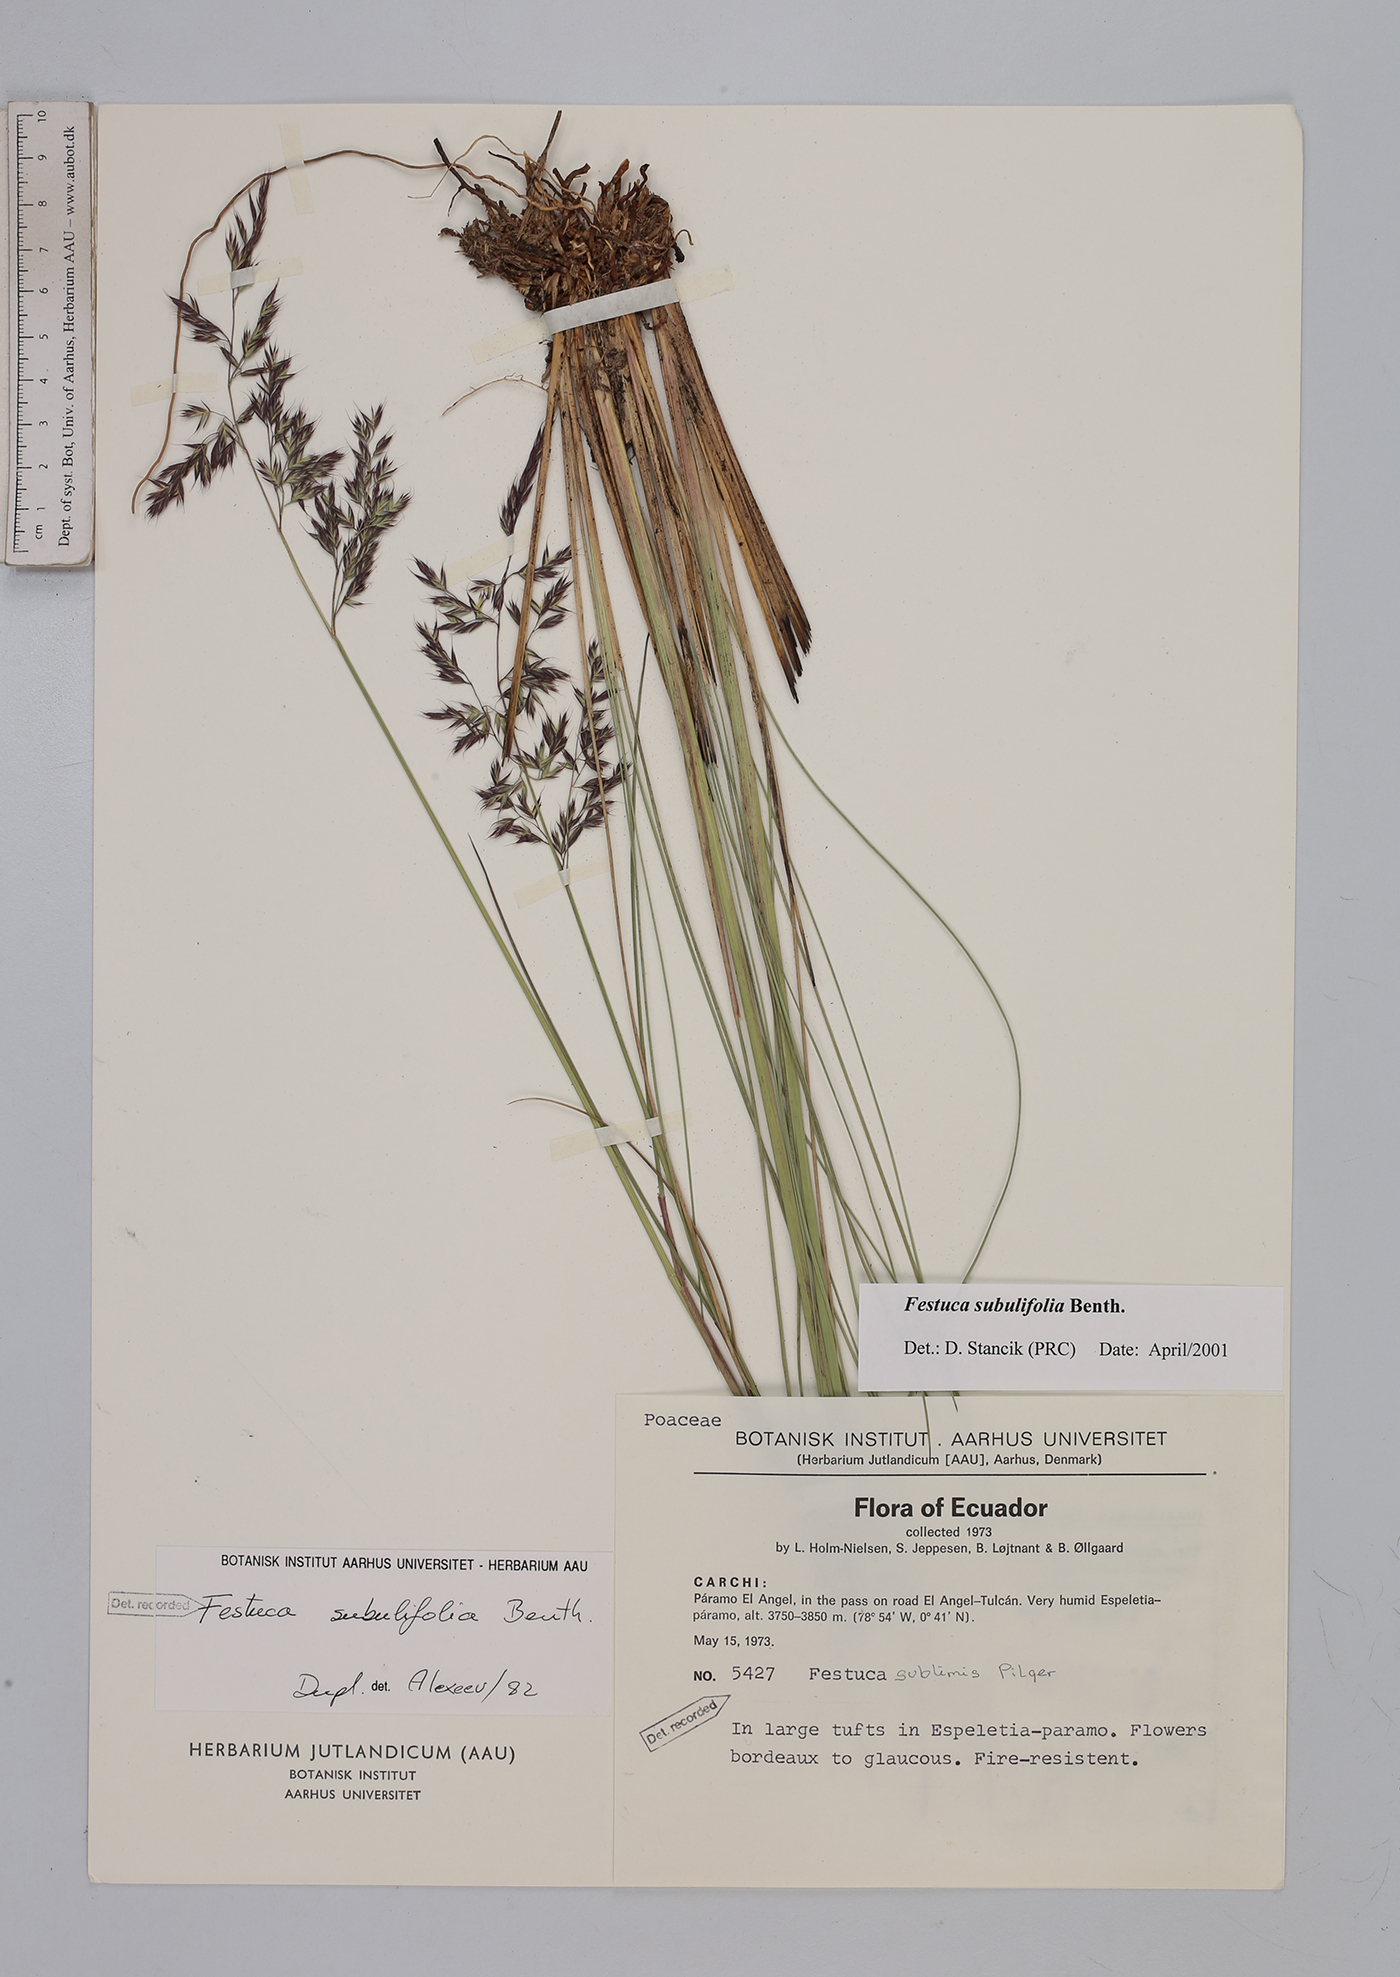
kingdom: Plantae
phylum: Tracheophyta
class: Liliopsida
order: Poales
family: Poaceae
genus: Festuca
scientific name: Festuca subulifolia
